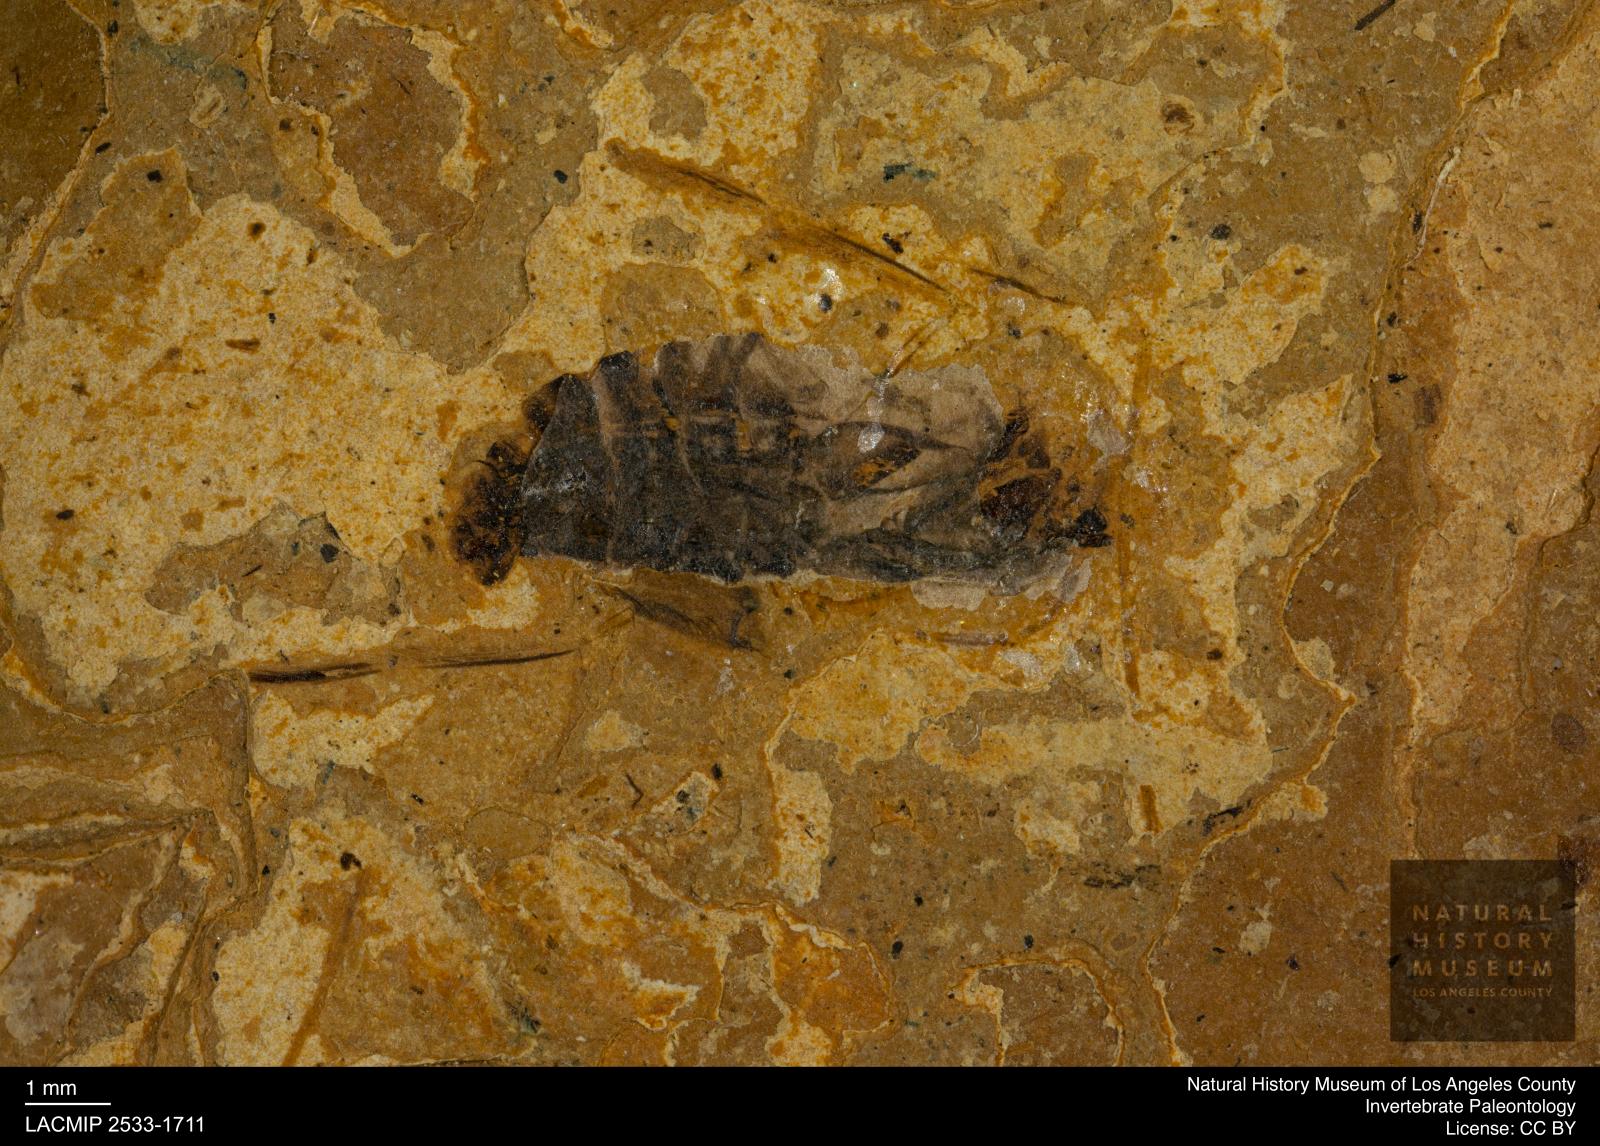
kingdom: Animalia
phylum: Arthropoda
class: Insecta
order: Hemiptera
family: Notonectidae
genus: Notonecta
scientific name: Notonecta
